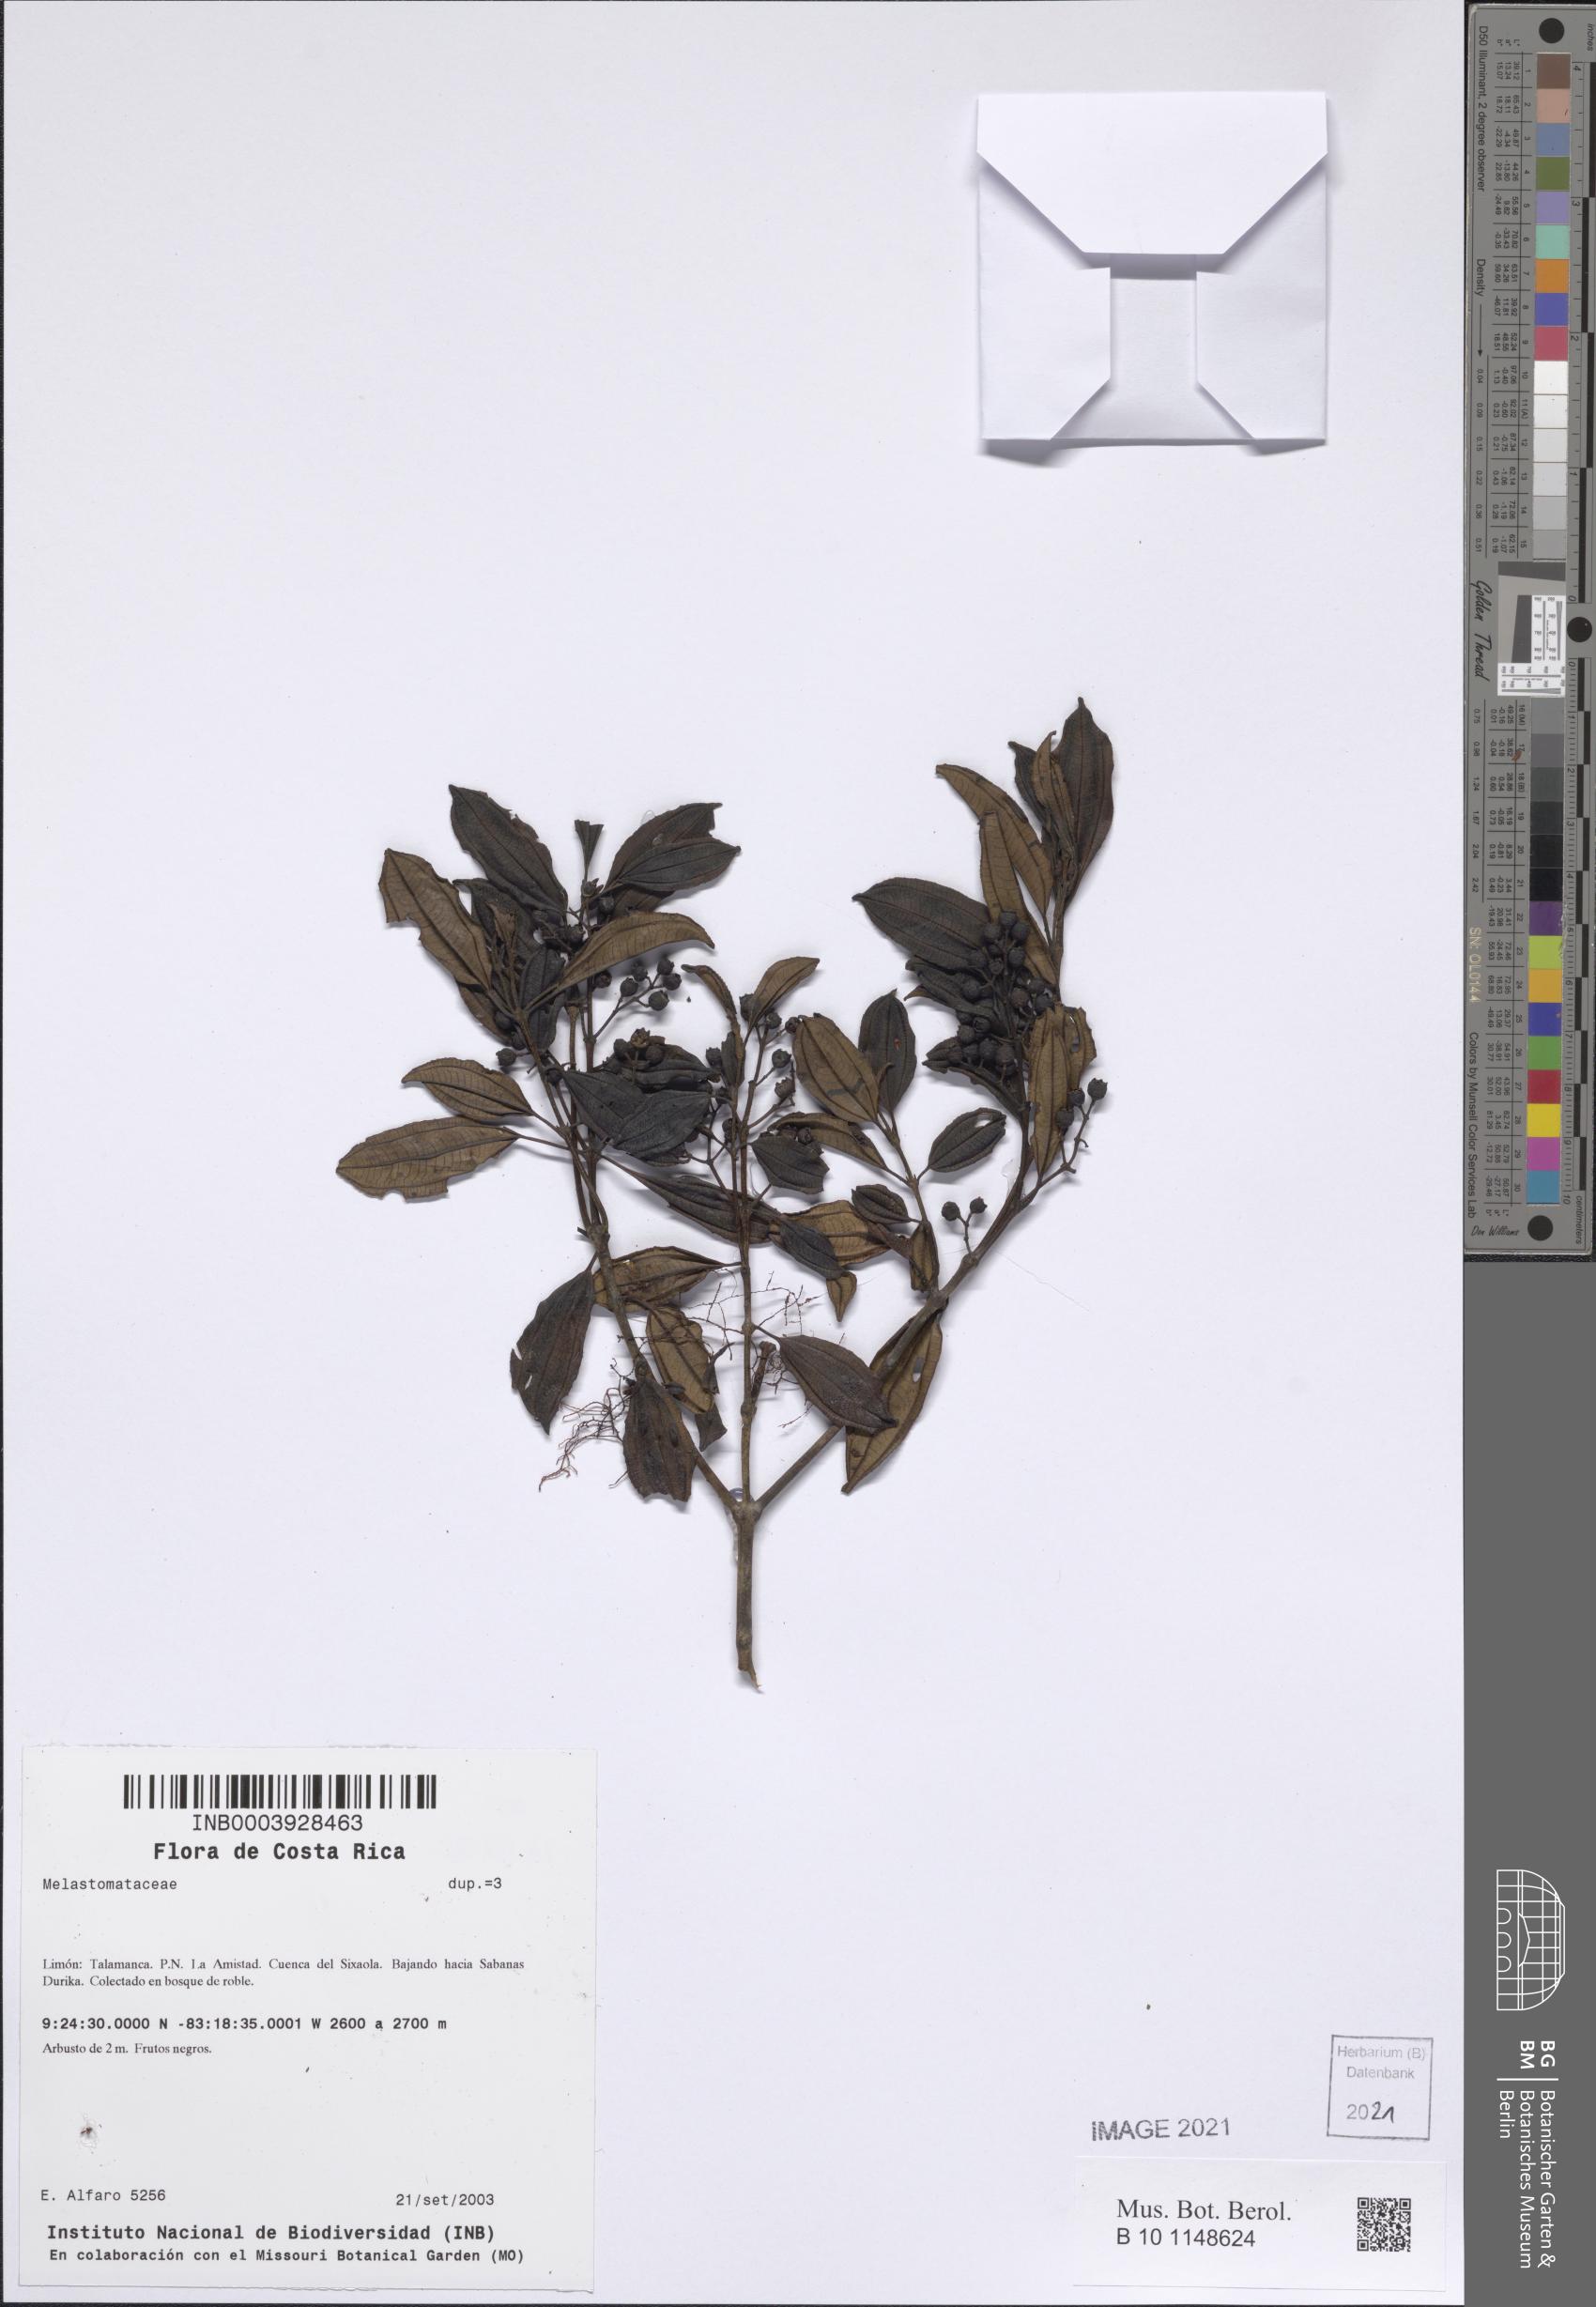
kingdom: Plantae
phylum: Tracheophyta
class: Magnoliopsida
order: Myrtales
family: Melastomataceae
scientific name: Melastomataceae
